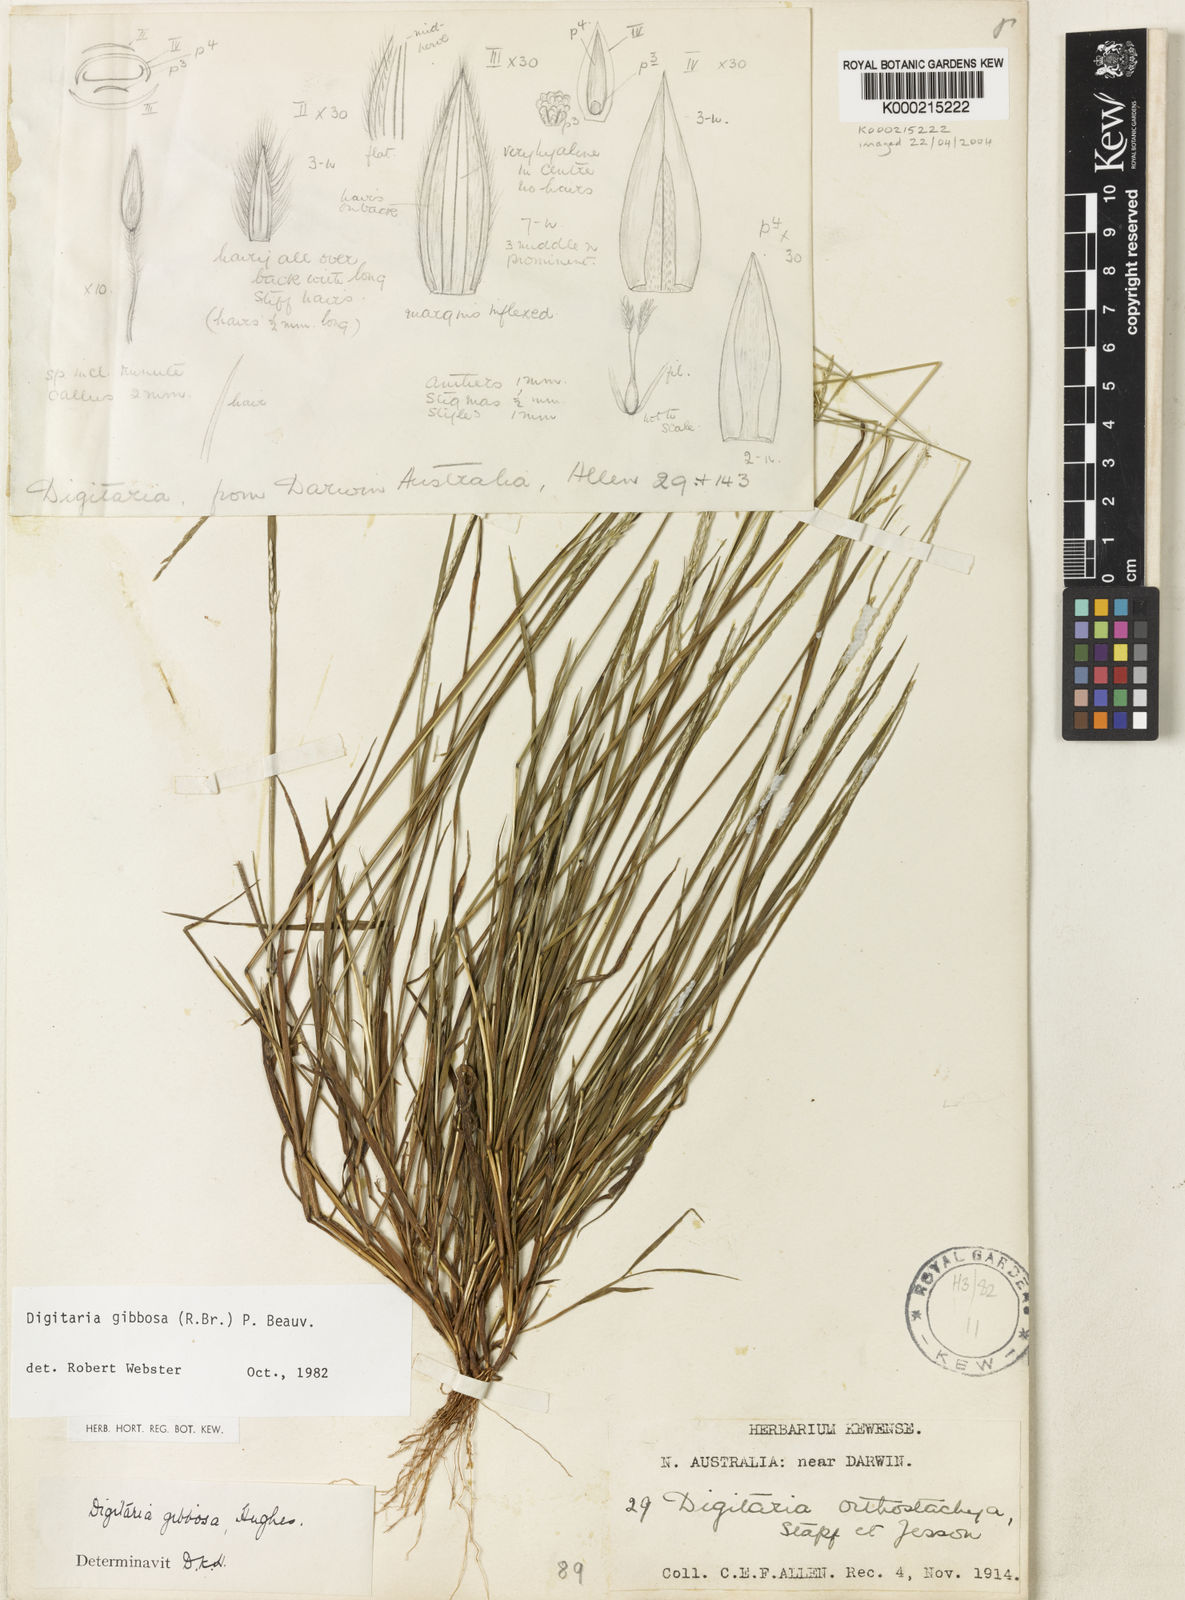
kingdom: Plantae
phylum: Tracheophyta
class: Liliopsida
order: Poales
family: Poaceae
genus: Digitaria
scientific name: Digitaria gibbosa
